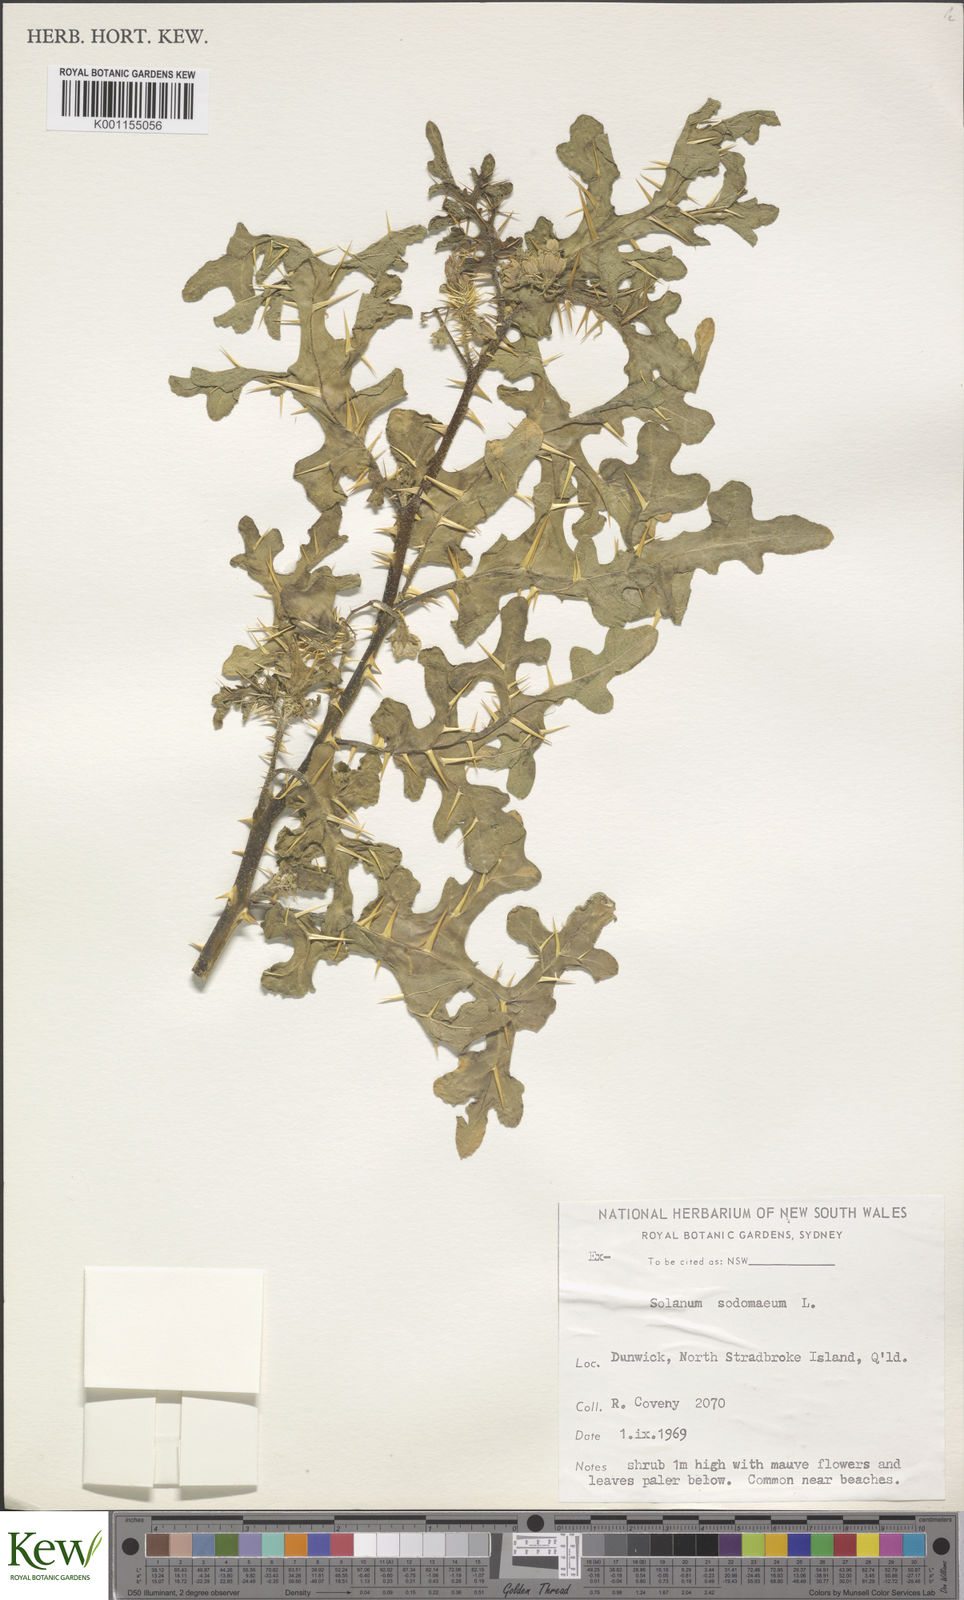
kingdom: Plantae
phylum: Tracheophyta
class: Magnoliopsida
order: Solanales
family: Solanaceae
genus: Solanum
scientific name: Solanum anguivi
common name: Forest bitterberry
